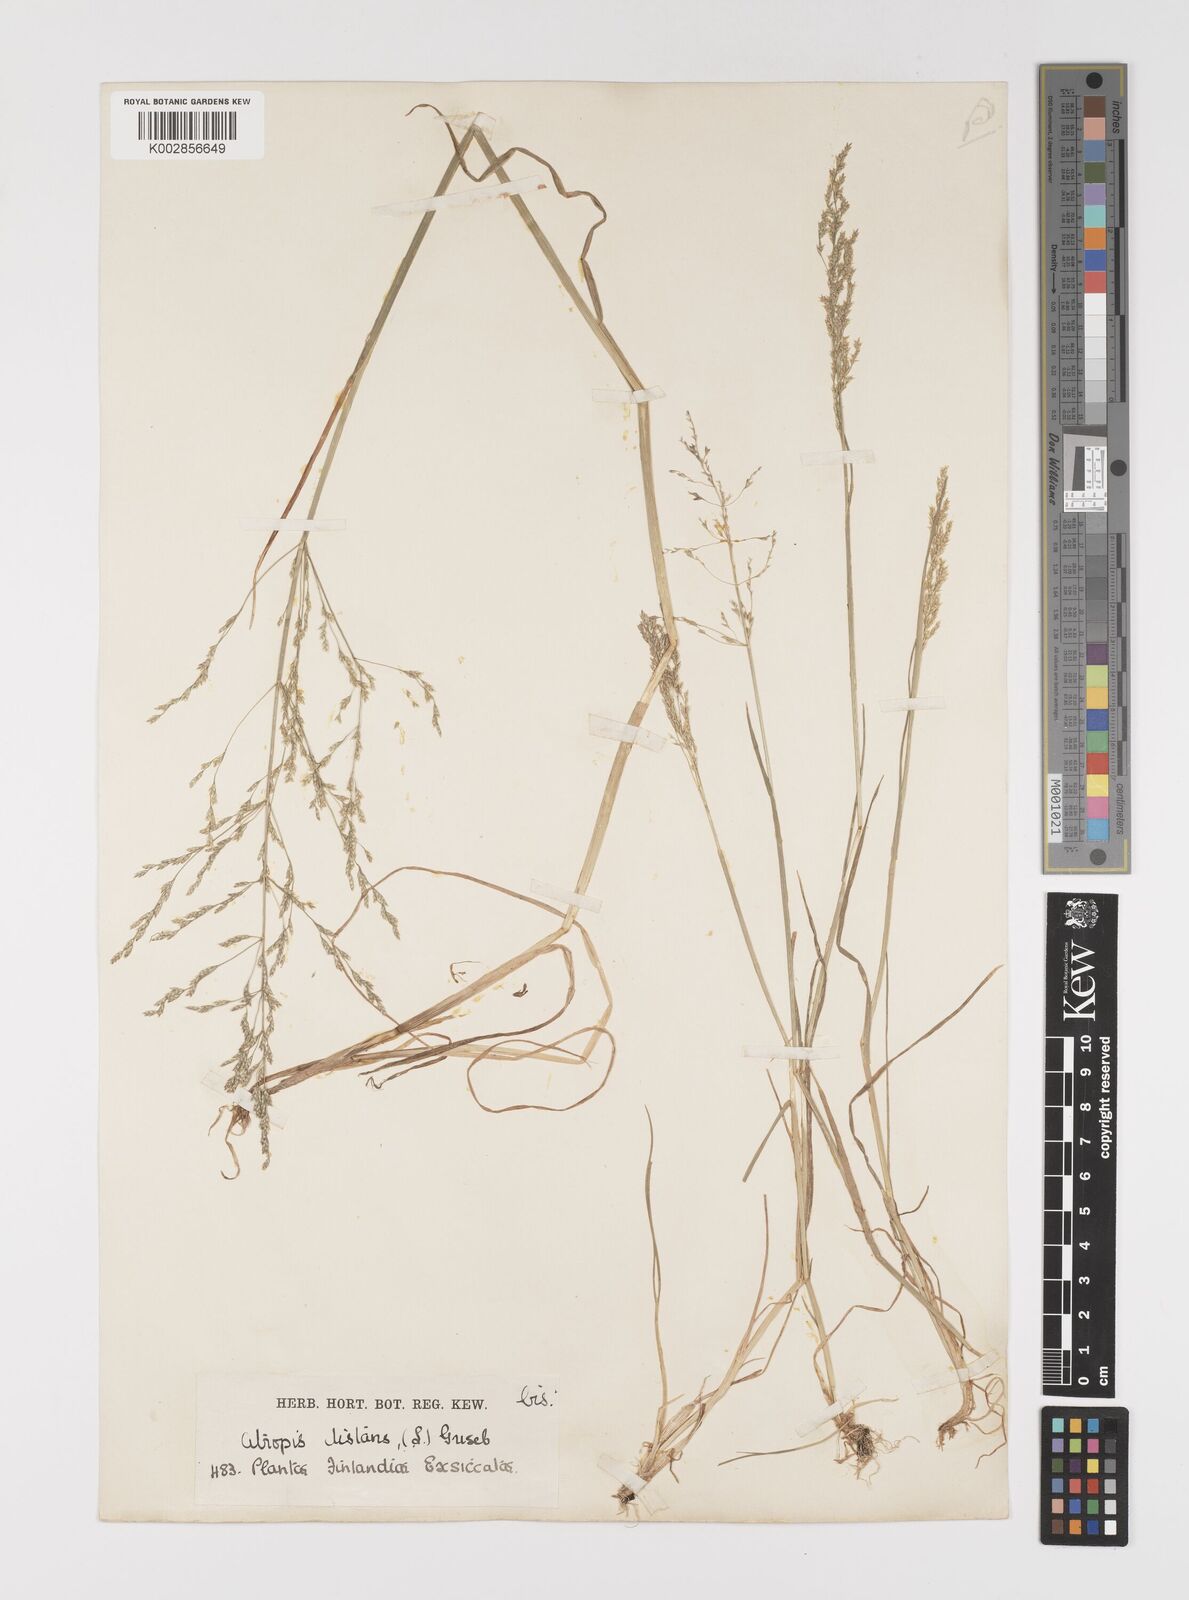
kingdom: Plantae
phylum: Tracheophyta
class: Liliopsida
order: Poales
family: Poaceae
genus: Puccinellia
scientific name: Puccinellia
